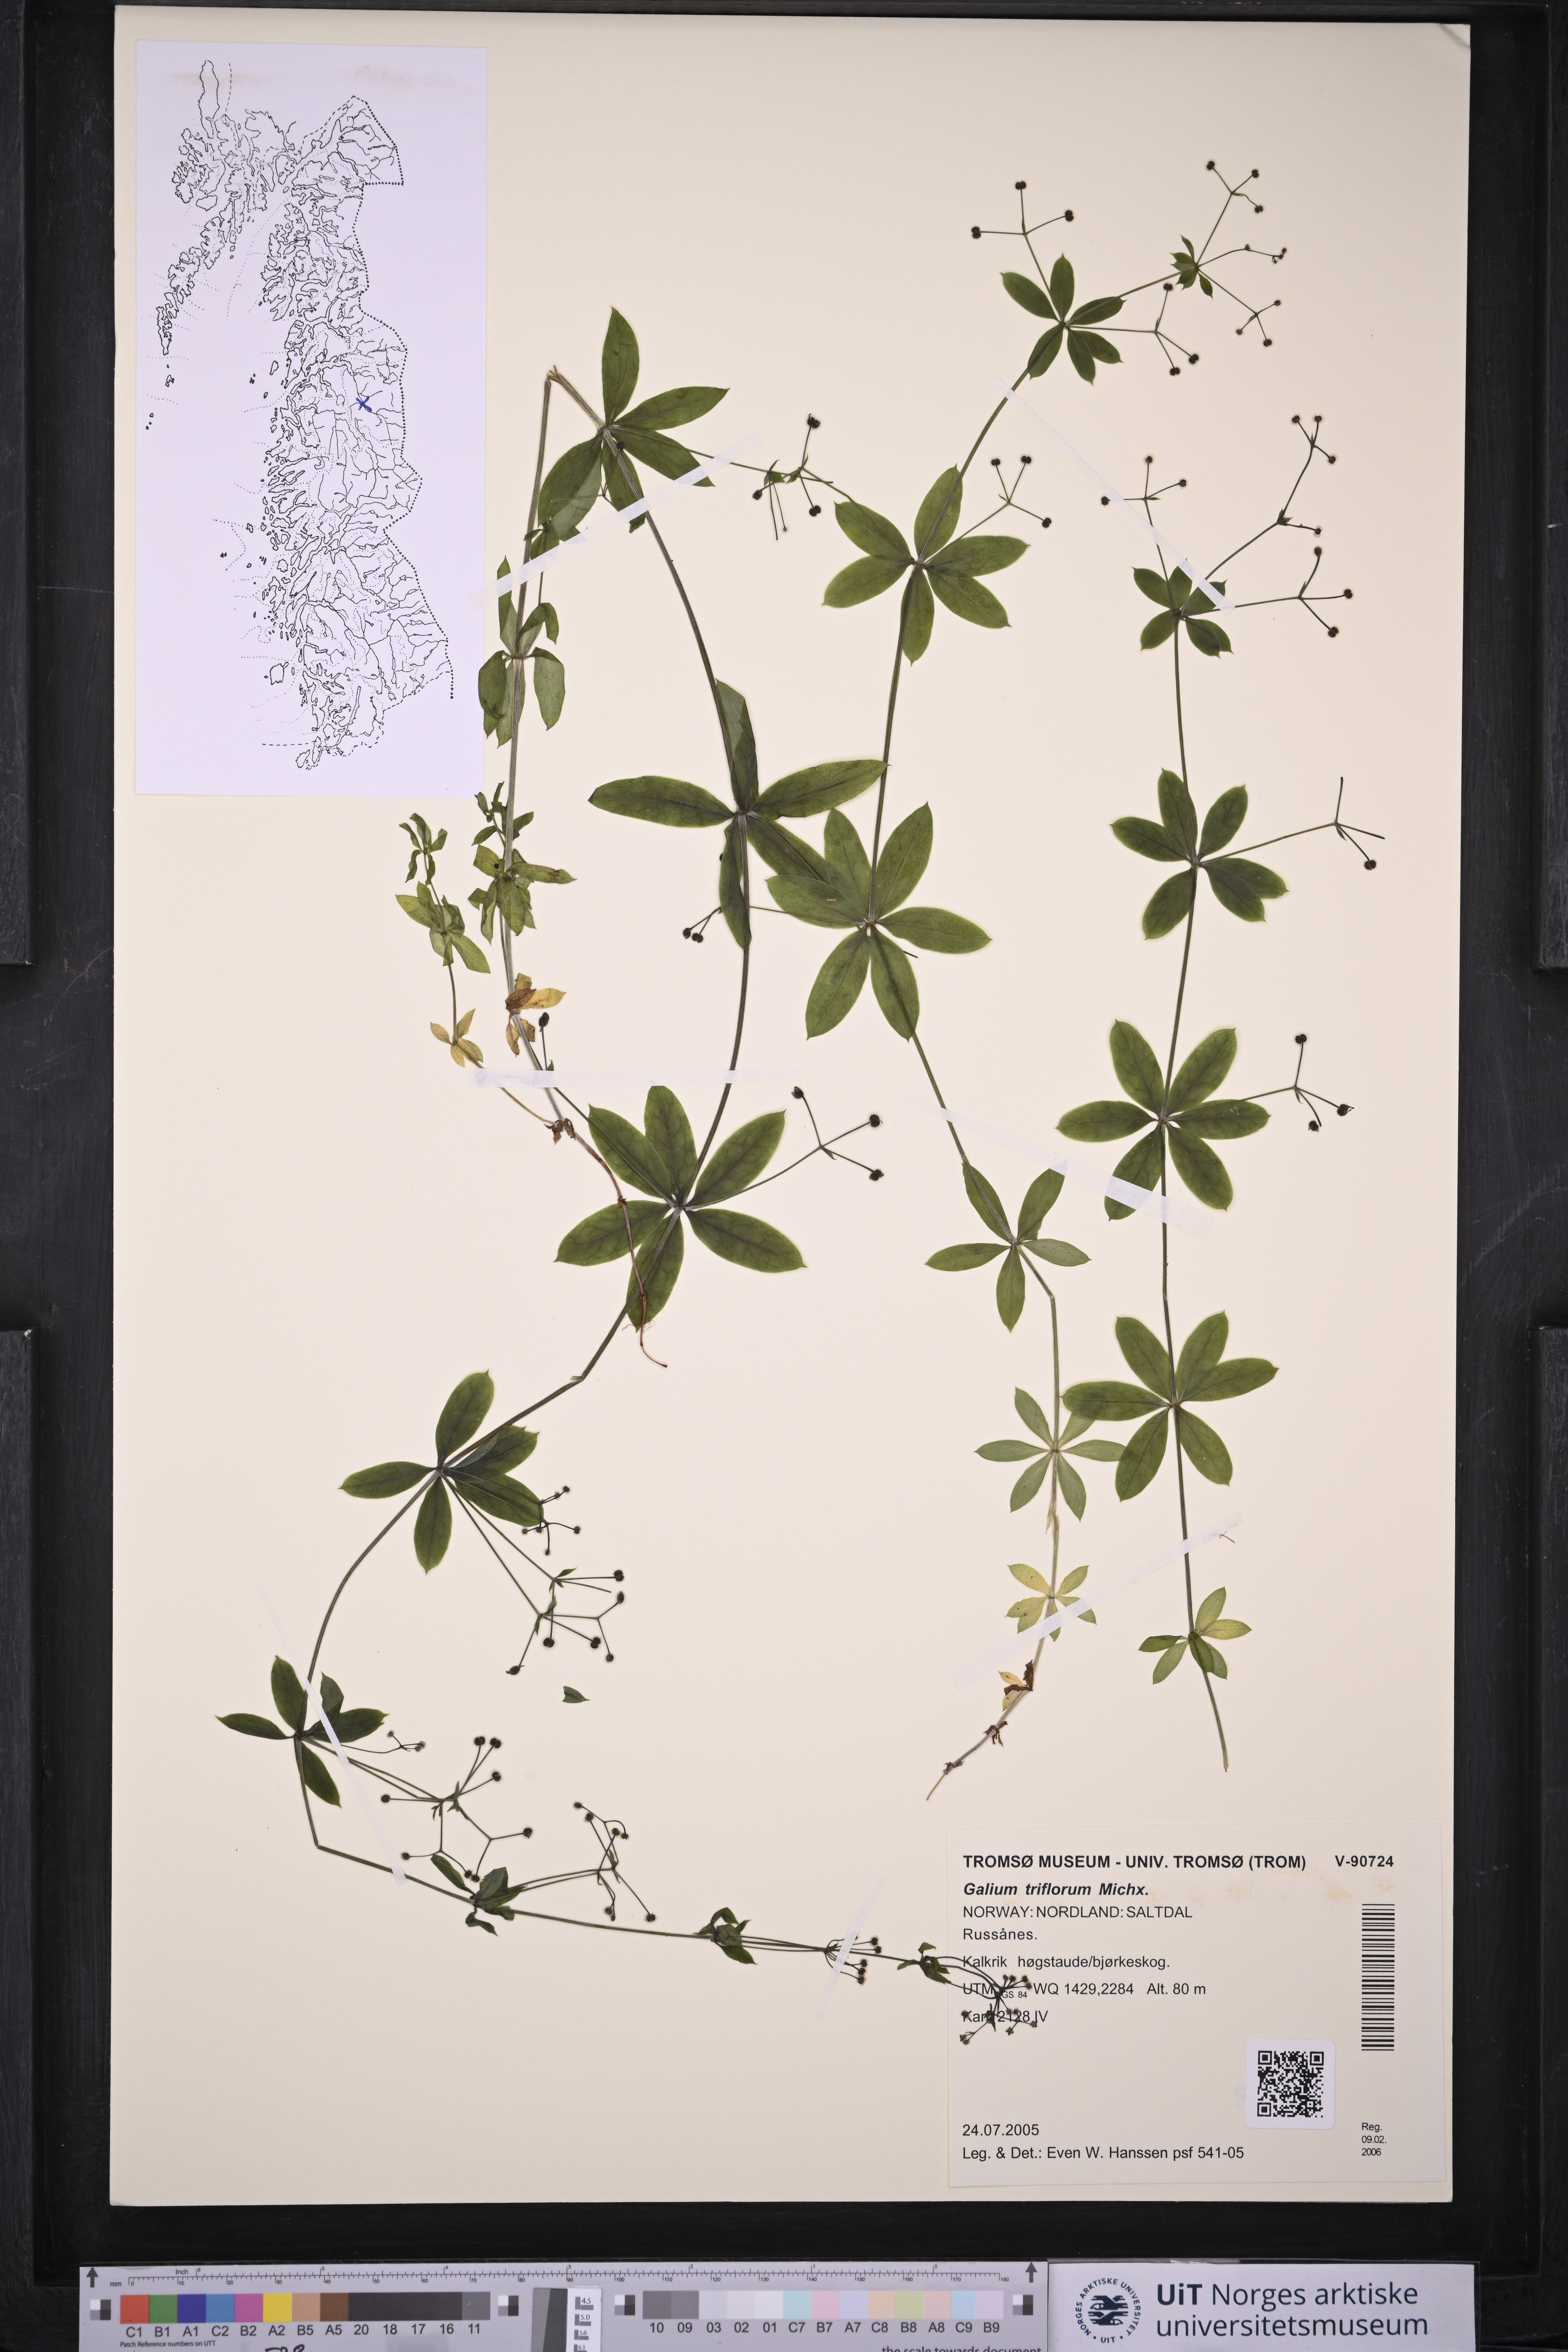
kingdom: Plantae
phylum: Tracheophyta
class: Magnoliopsida
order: Gentianales
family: Rubiaceae
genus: Galium
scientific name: Galium triflorum
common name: Fragrant bedstraw
